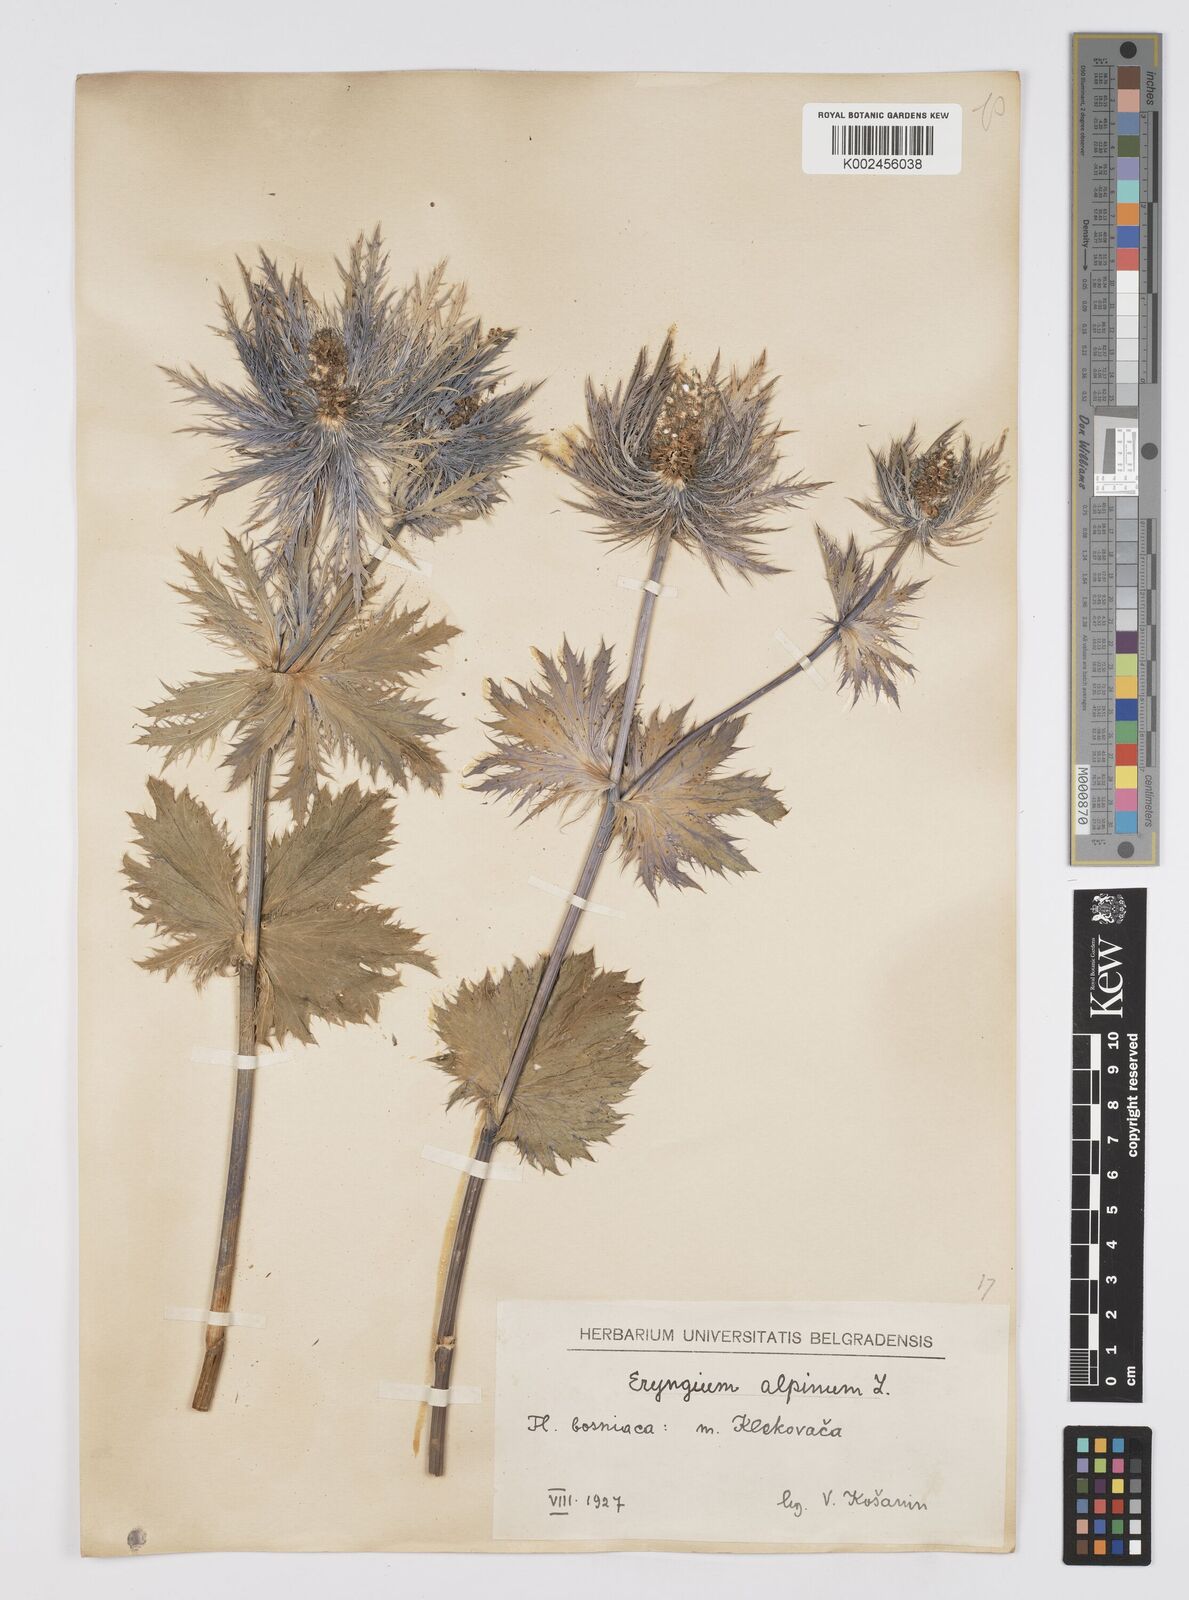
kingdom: Plantae
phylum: Tracheophyta
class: Magnoliopsida
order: Apiales
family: Apiaceae
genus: Eryngium
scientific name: Eryngium
